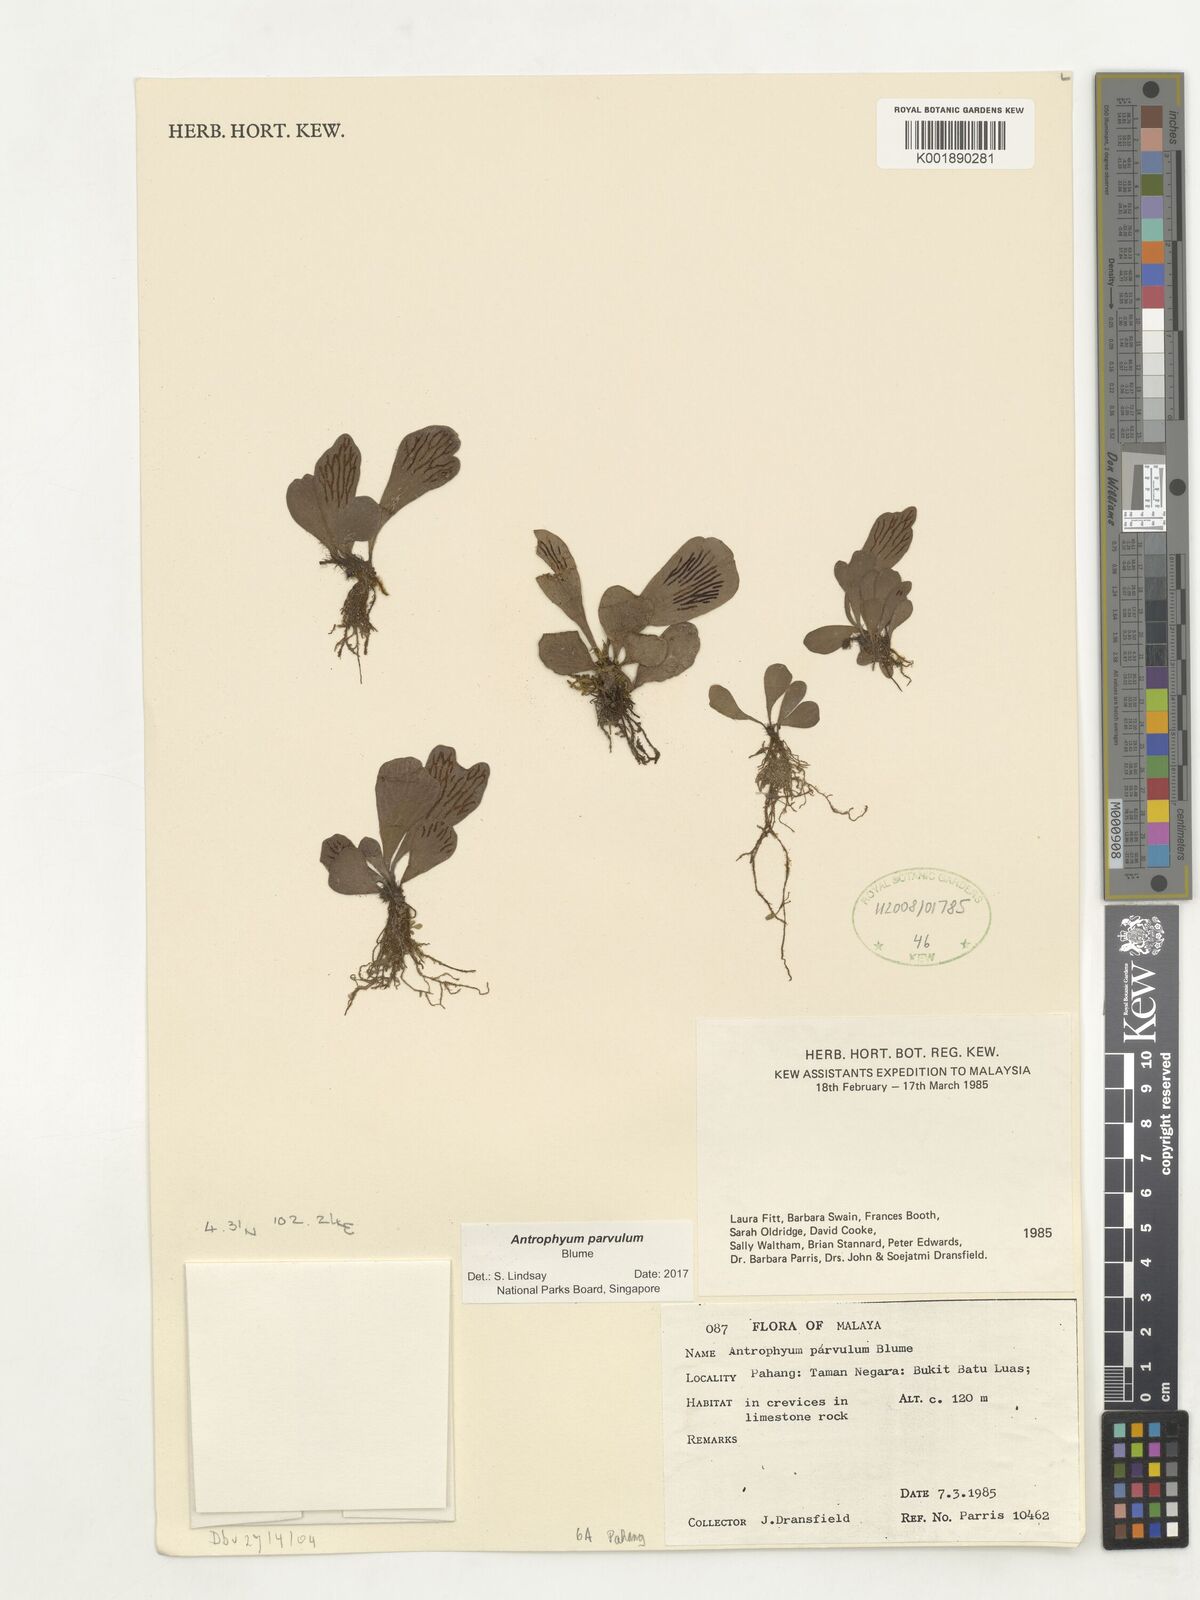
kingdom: Plantae
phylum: Tracheophyta
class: Polypodiopsida
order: Polypodiales
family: Pteridaceae
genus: Antrophyum
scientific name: Antrophyum parvulum
